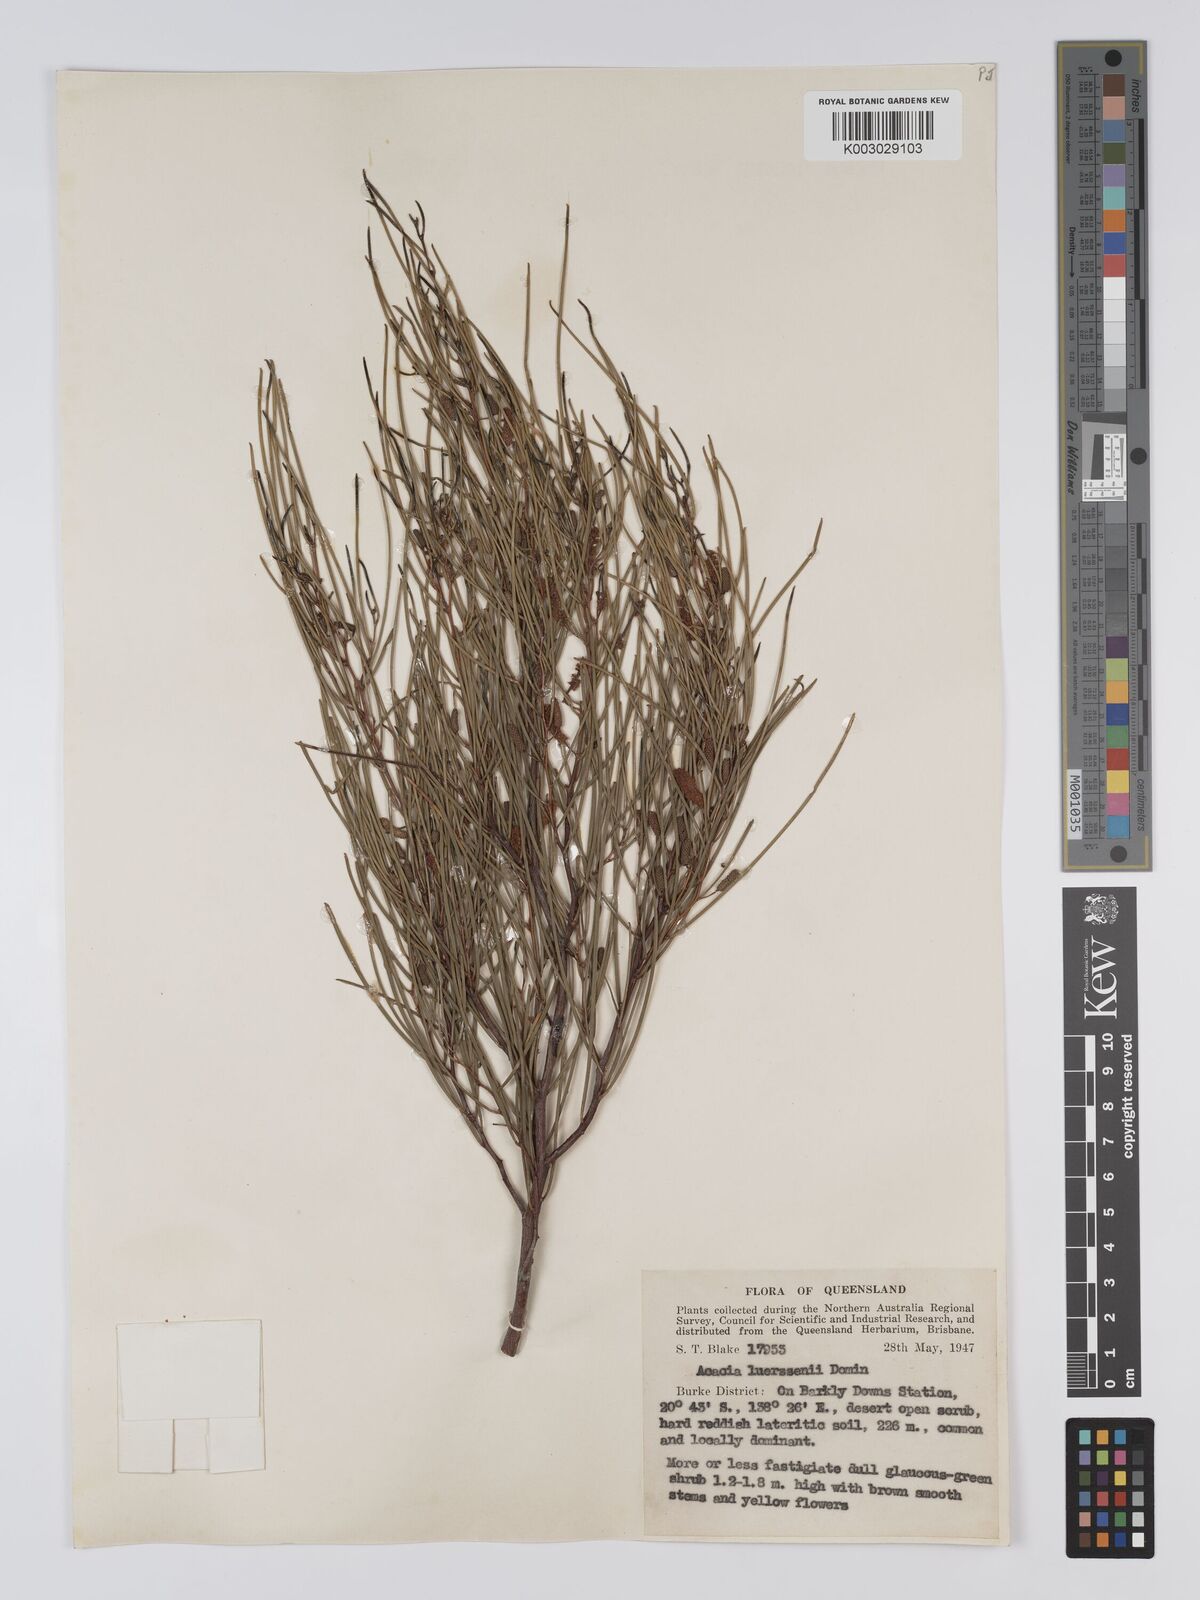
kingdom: Plantae
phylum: Tracheophyta
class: Magnoliopsida
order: Fabales
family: Fabaceae
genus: Acacia
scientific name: Acacia tenuissima
